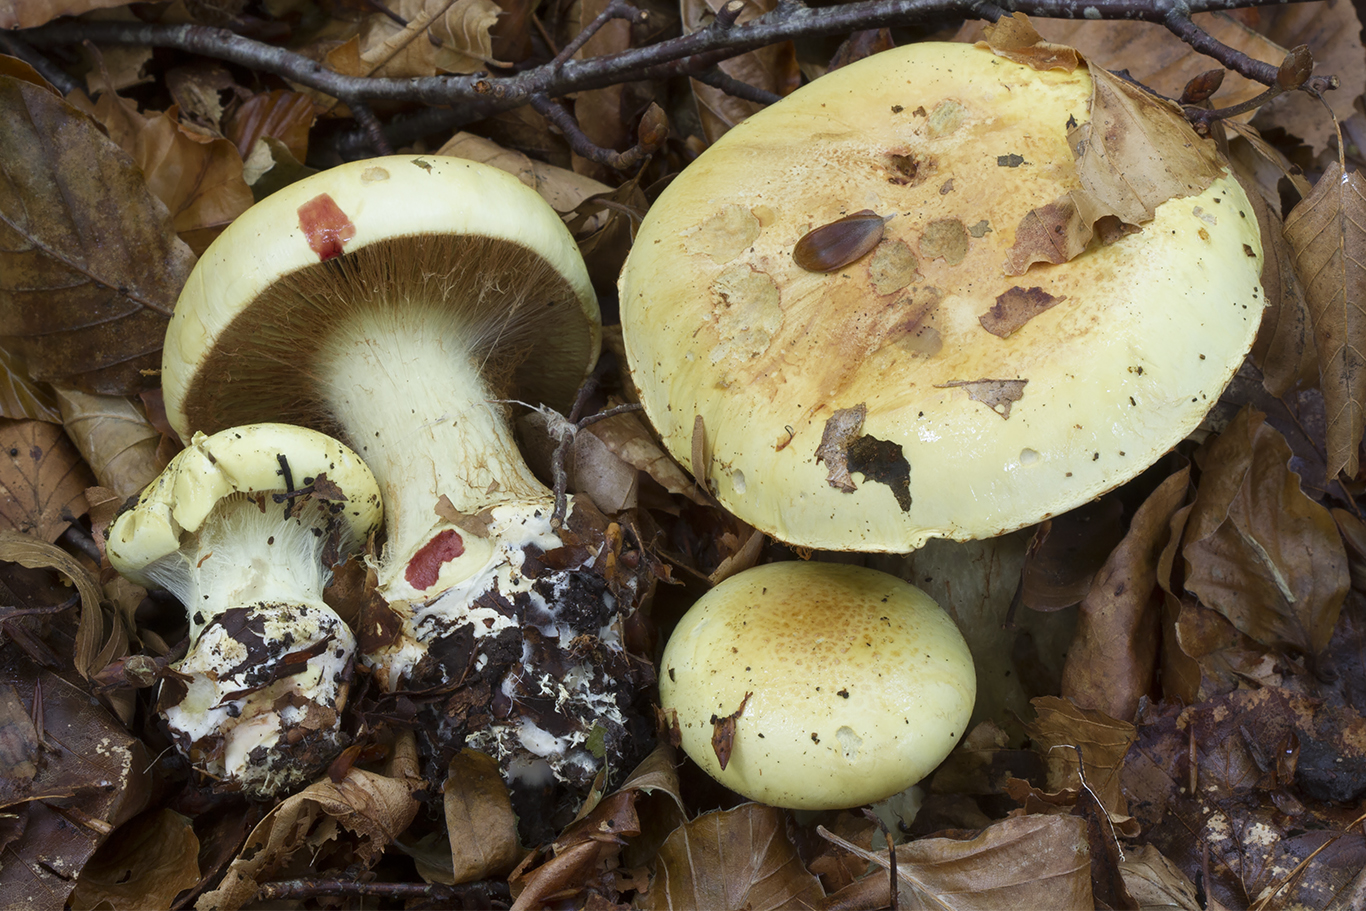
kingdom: Fungi
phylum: Basidiomycota
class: Agaricomycetes
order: Agaricales
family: Cortinariaceae
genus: Calonarius
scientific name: Calonarius elegantissimus
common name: orangegylden slørhat
